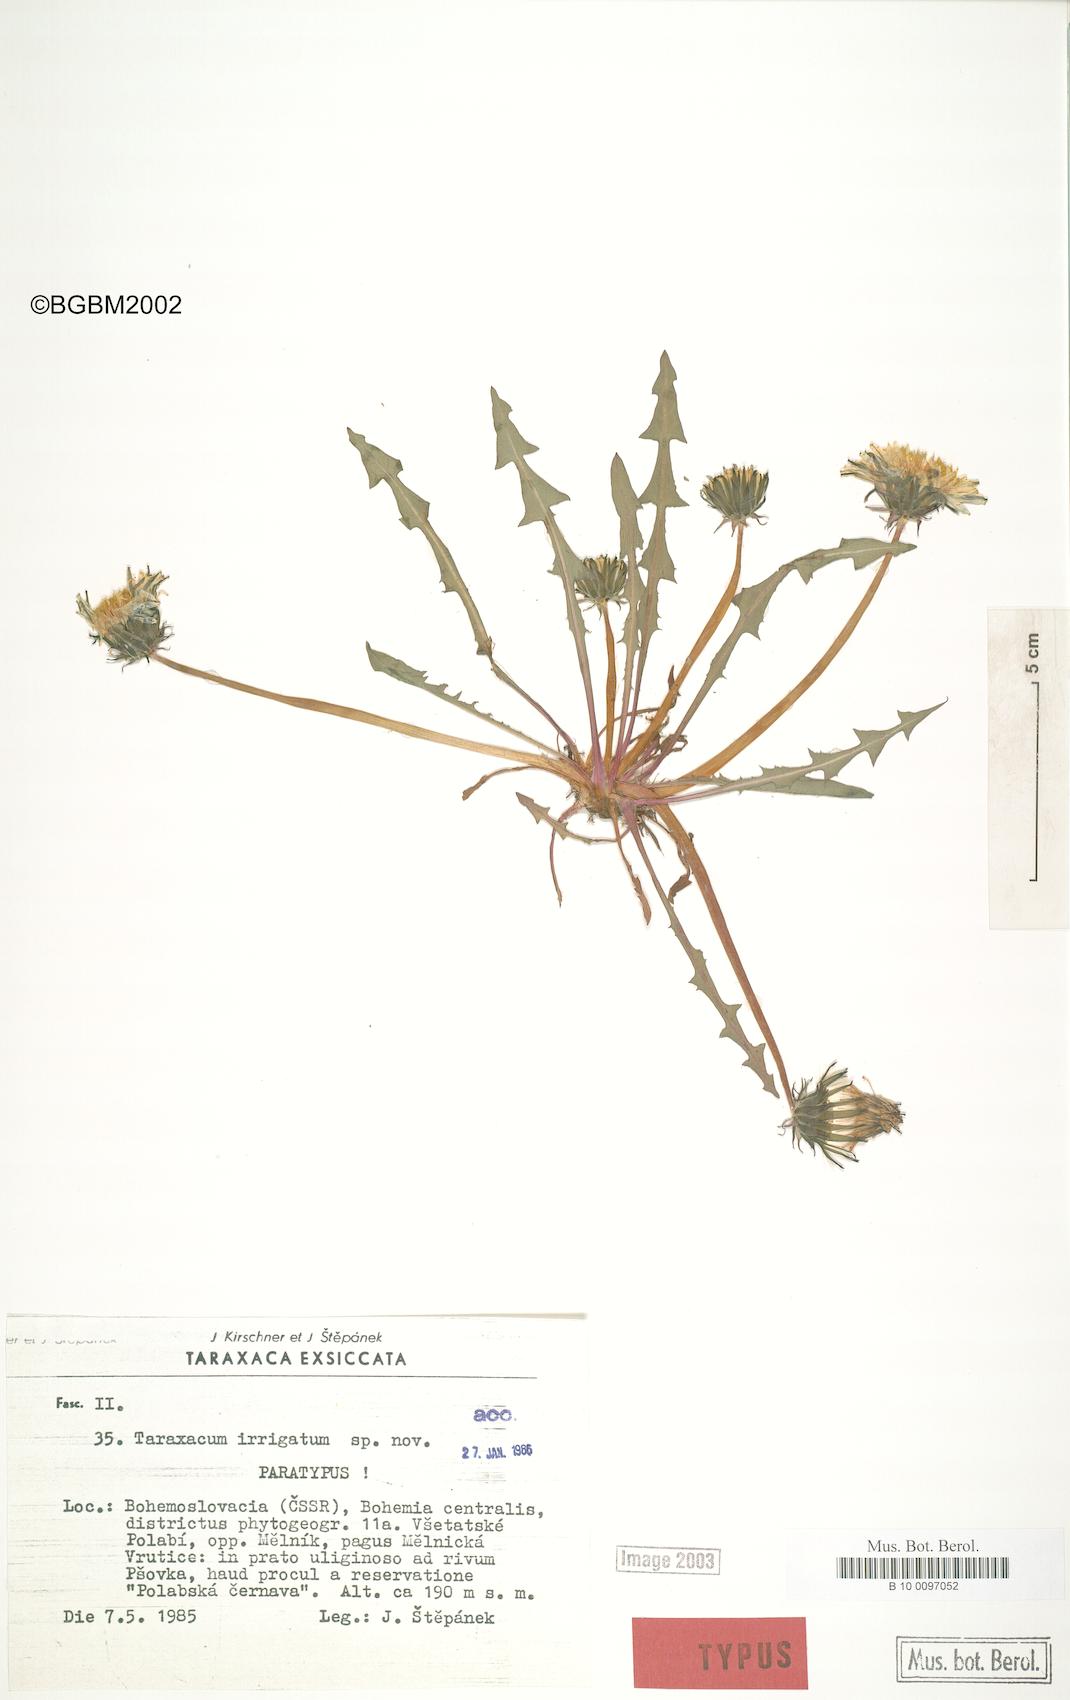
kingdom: Plantae
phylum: Tracheophyta
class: Magnoliopsida
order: Asterales
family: Asteraceae
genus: Taraxacum
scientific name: Taraxacum pseudopalustre
